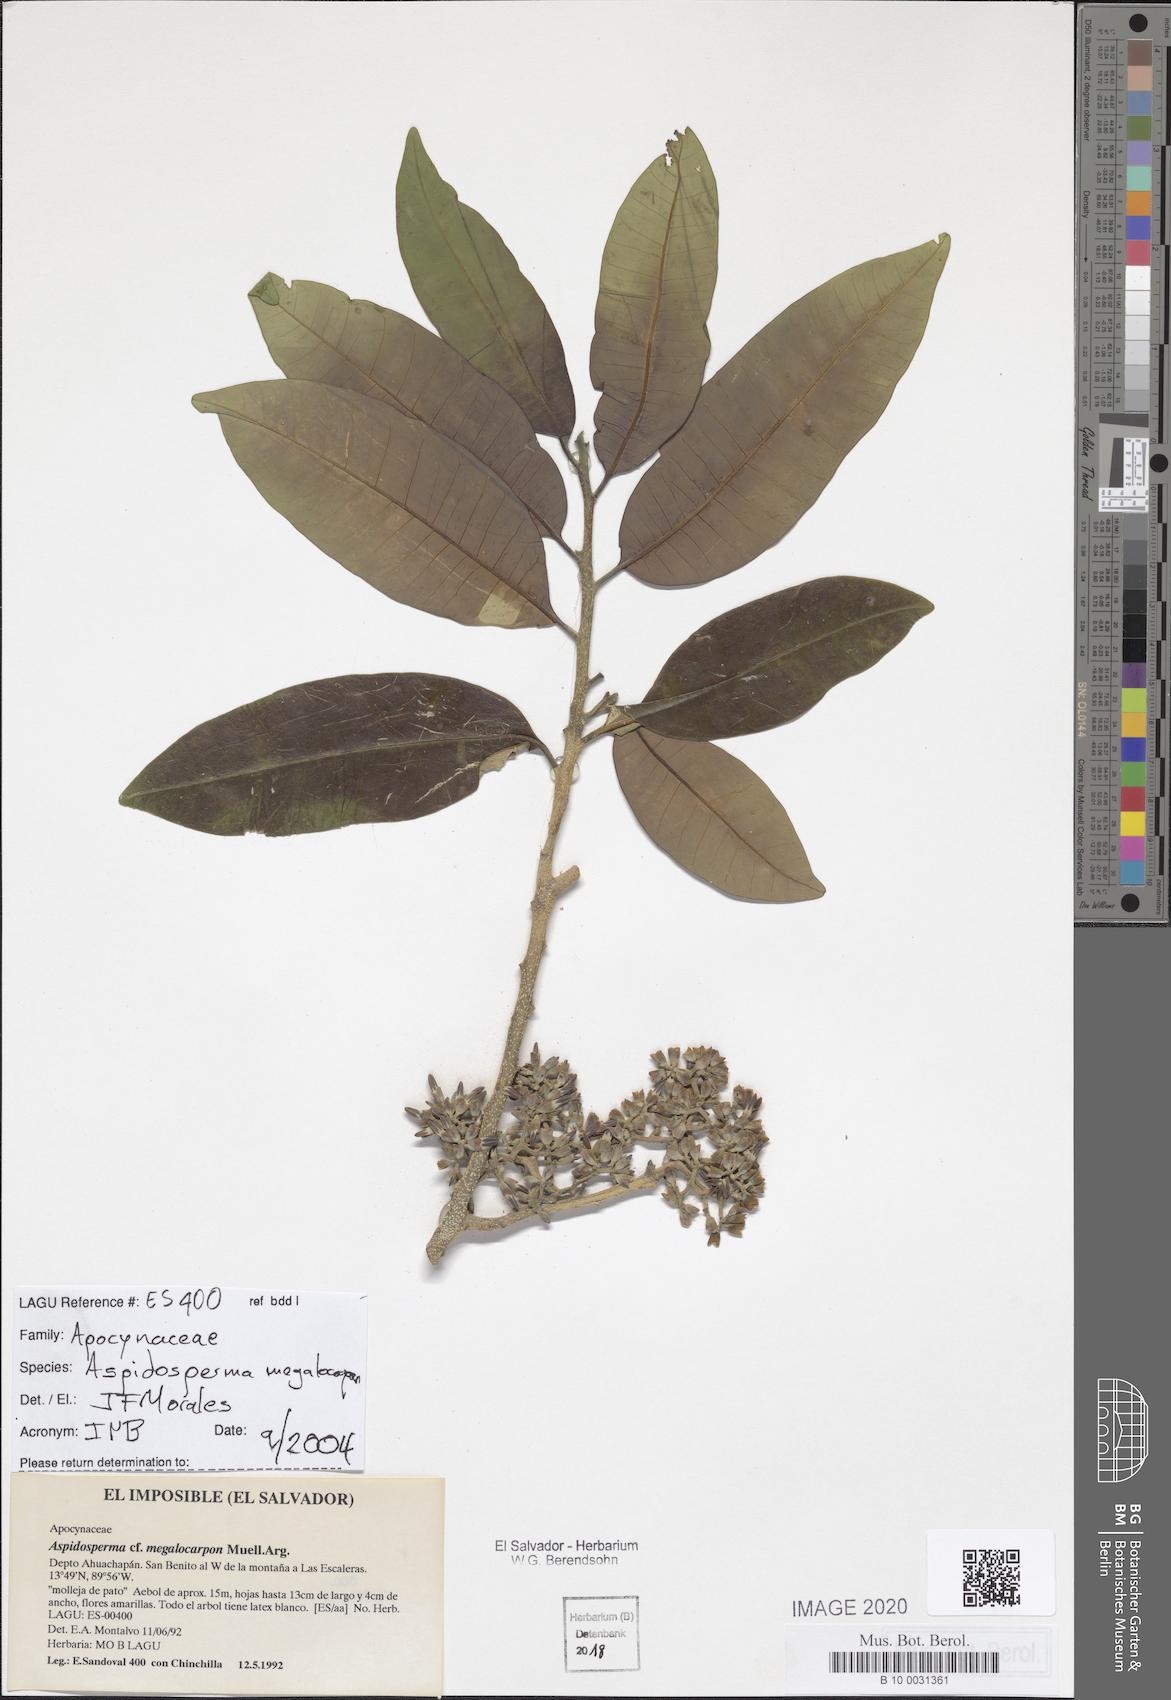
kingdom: Plantae
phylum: Tracheophyta
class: Magnoliopsida
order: Gentianales
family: Apocynaceae
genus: Aspidosperma
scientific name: Aspidosperma megalocarpon
